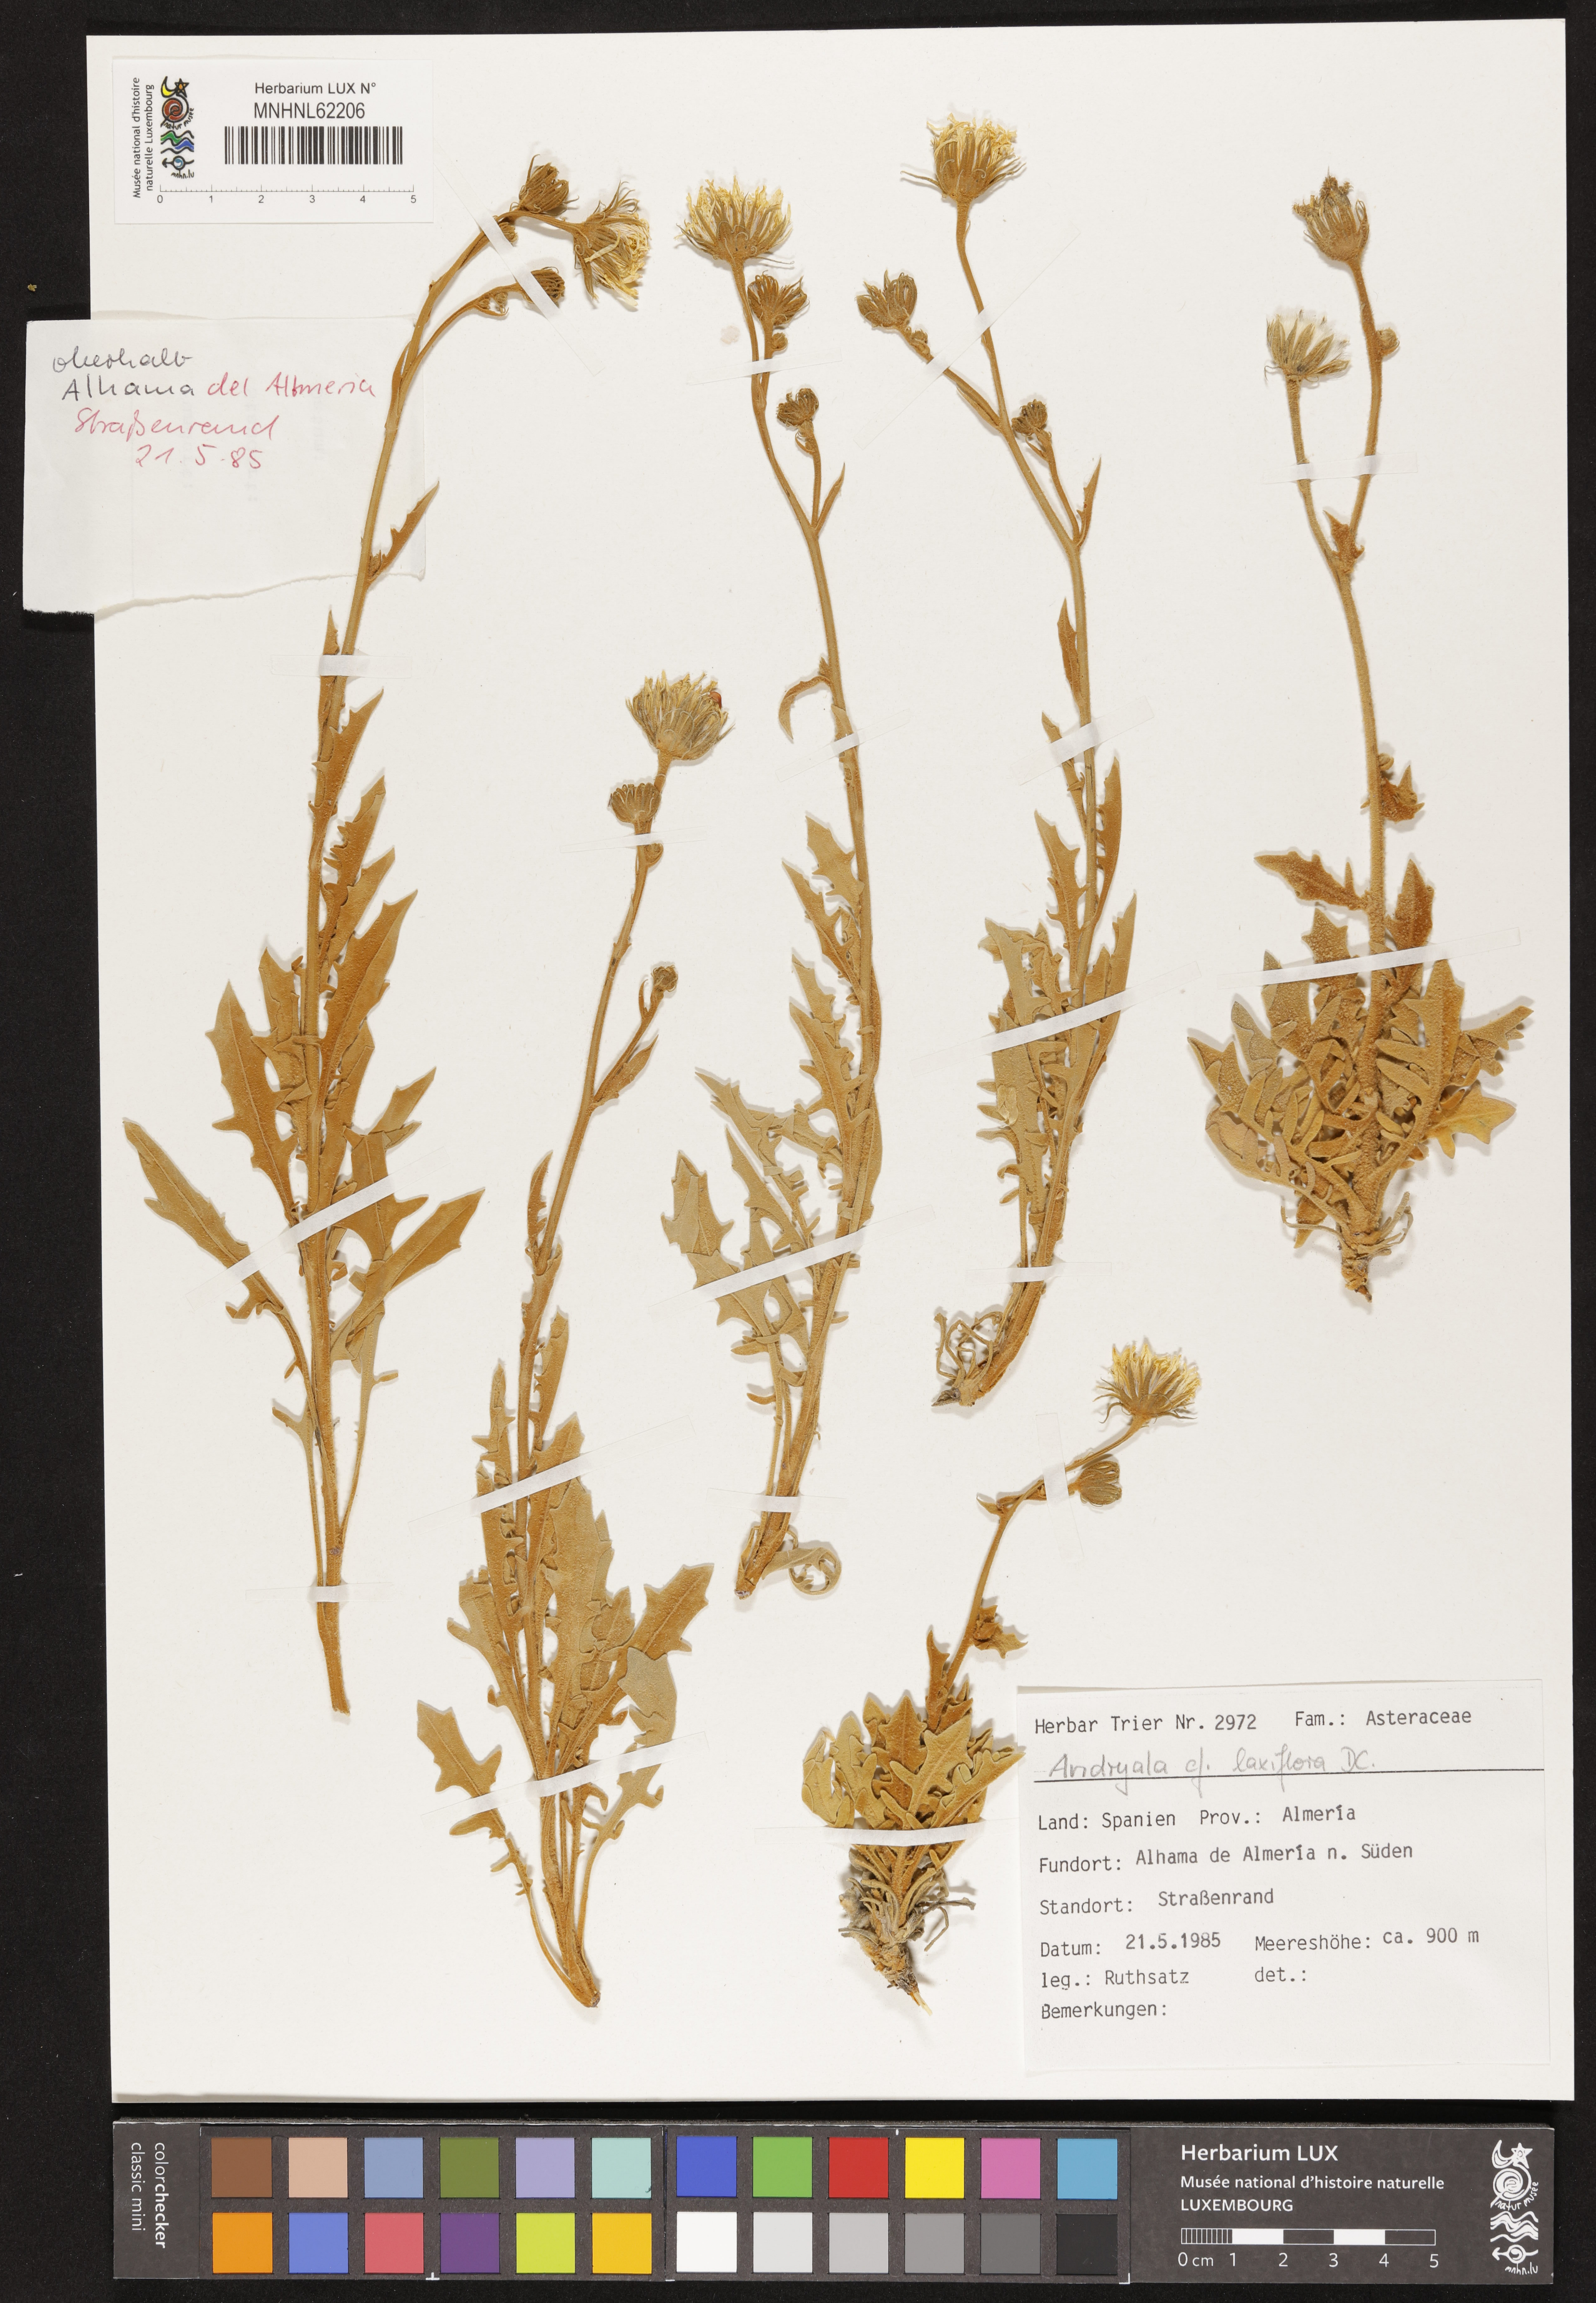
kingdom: Plantae
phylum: Tracheophyta
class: Magnoliopsida
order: Asterales
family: Asteraceae
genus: Andryala
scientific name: Andryala rothia
